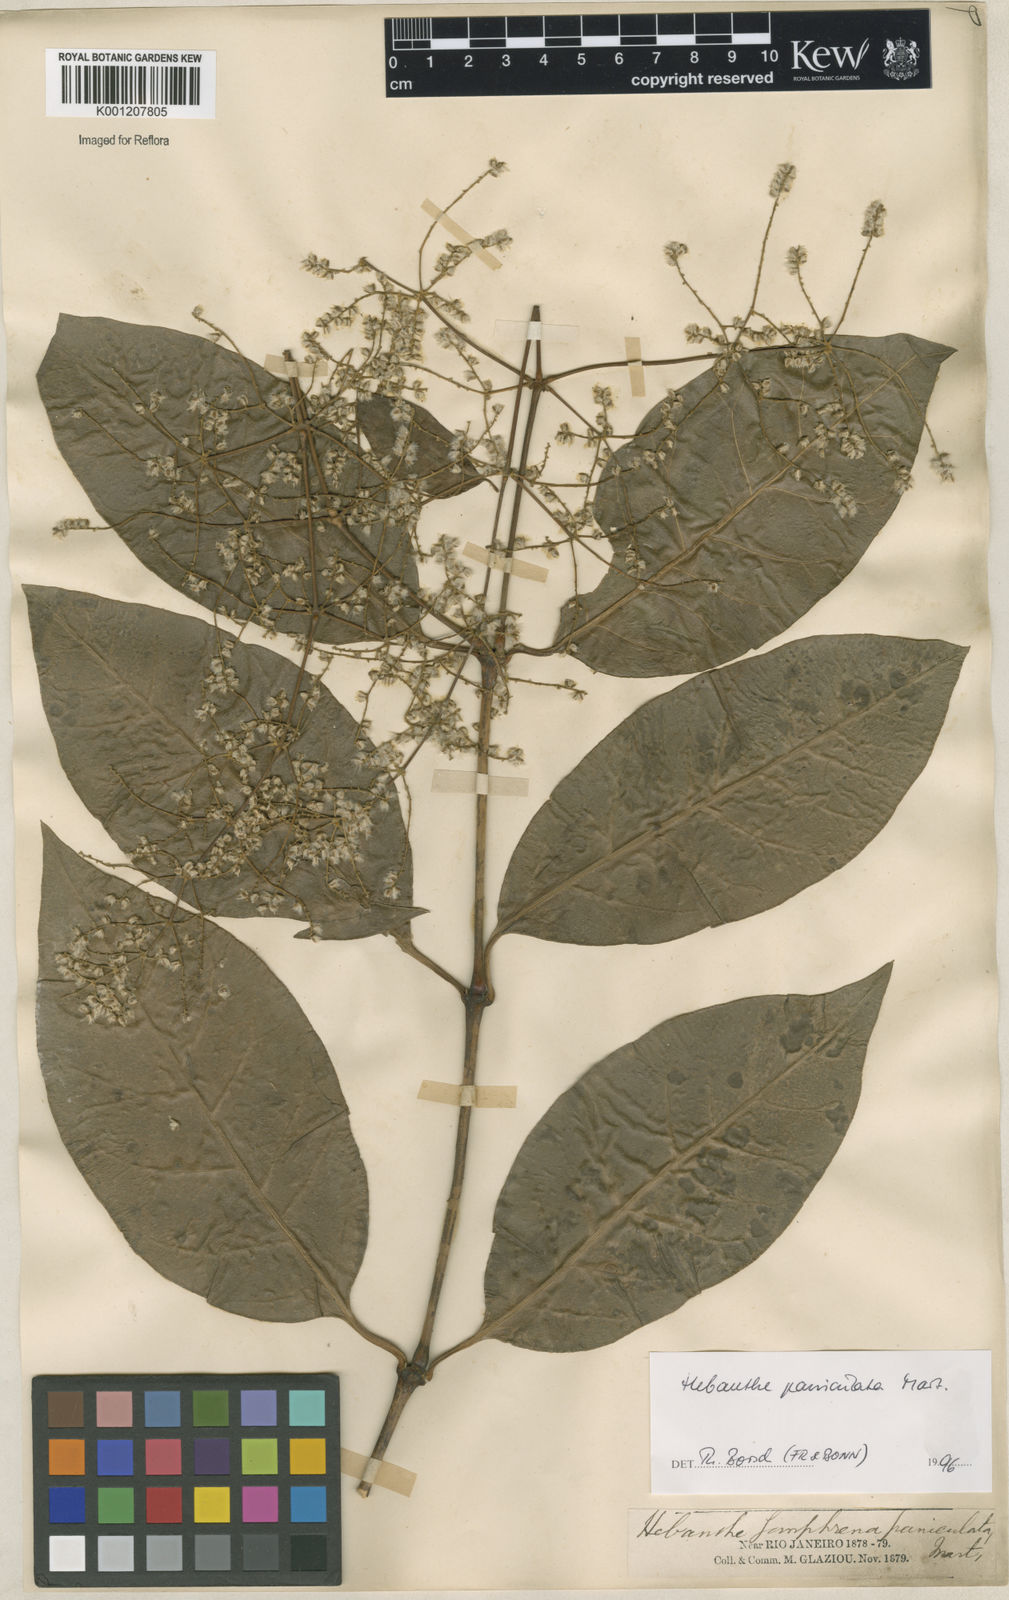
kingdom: Plantae
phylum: Tracheophyta
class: Magnoliopsida
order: Caryophyllales
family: Amaranthaceae
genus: Hebanthe
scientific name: Hebanthe erianthos
